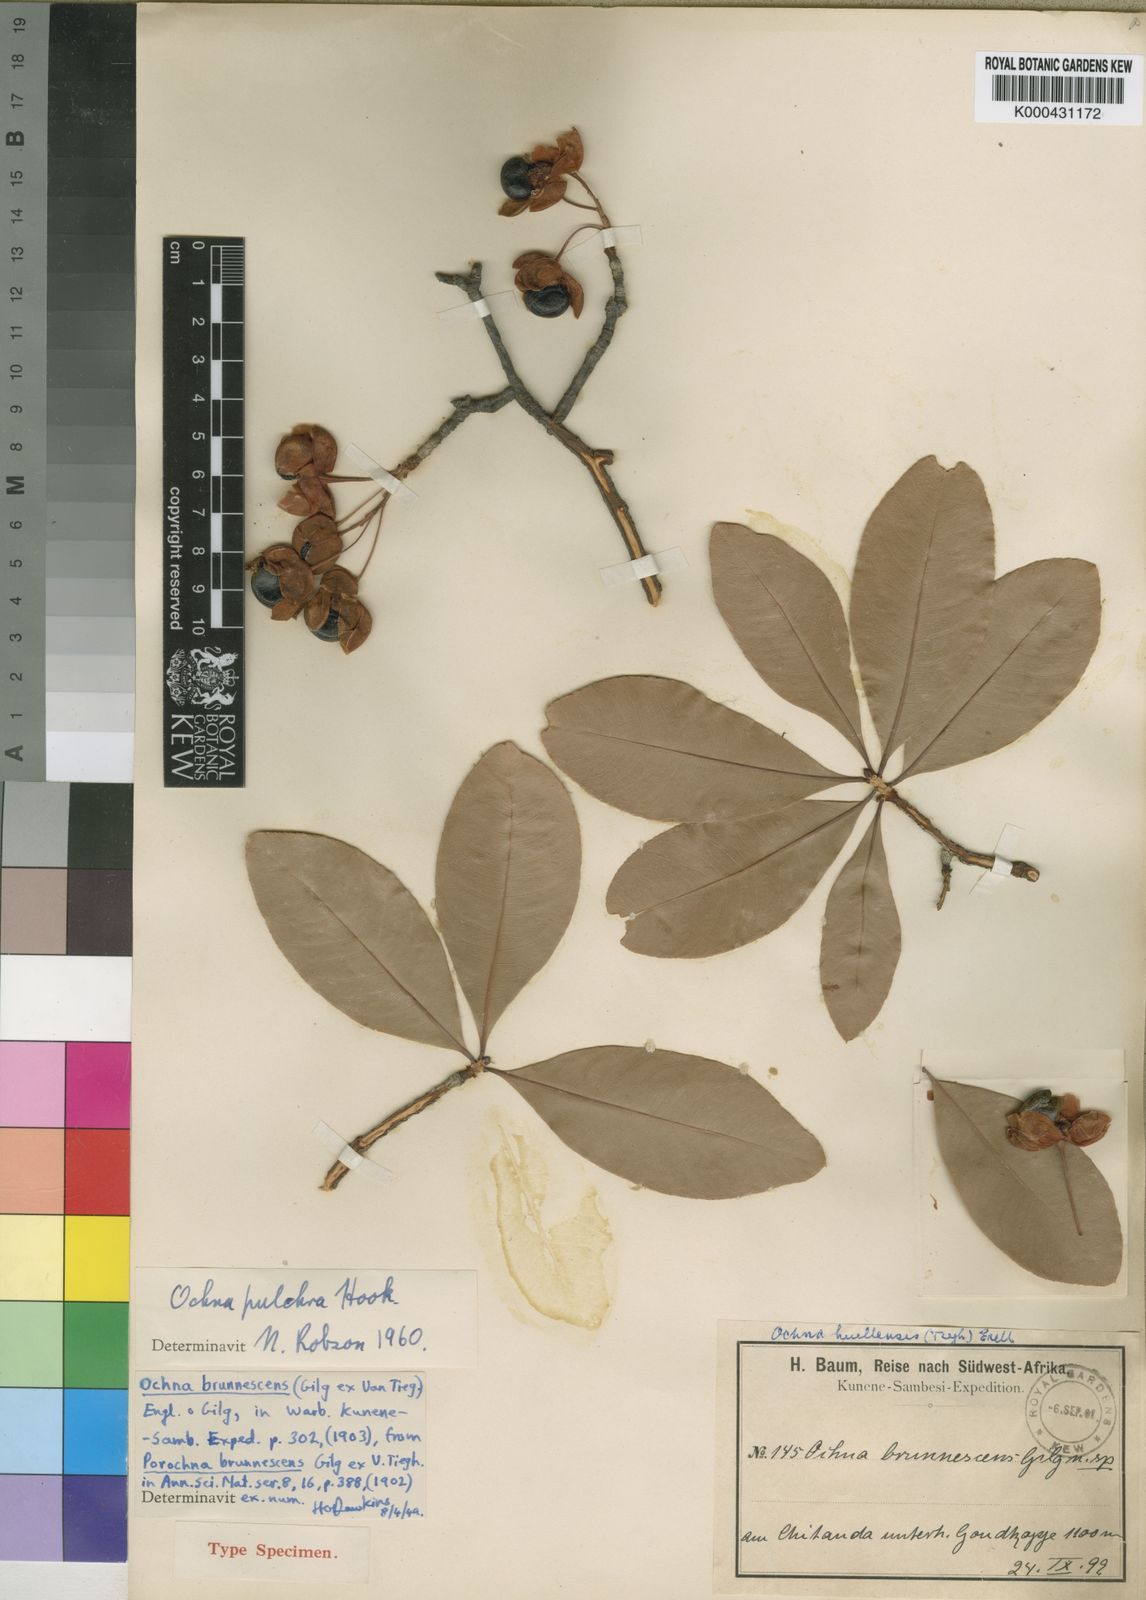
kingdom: Plantae
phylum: Tracheophyta
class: Magnoliopsida
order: Malpighiales
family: Ochnaceae
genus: Ochna
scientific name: Ochna pulchra
